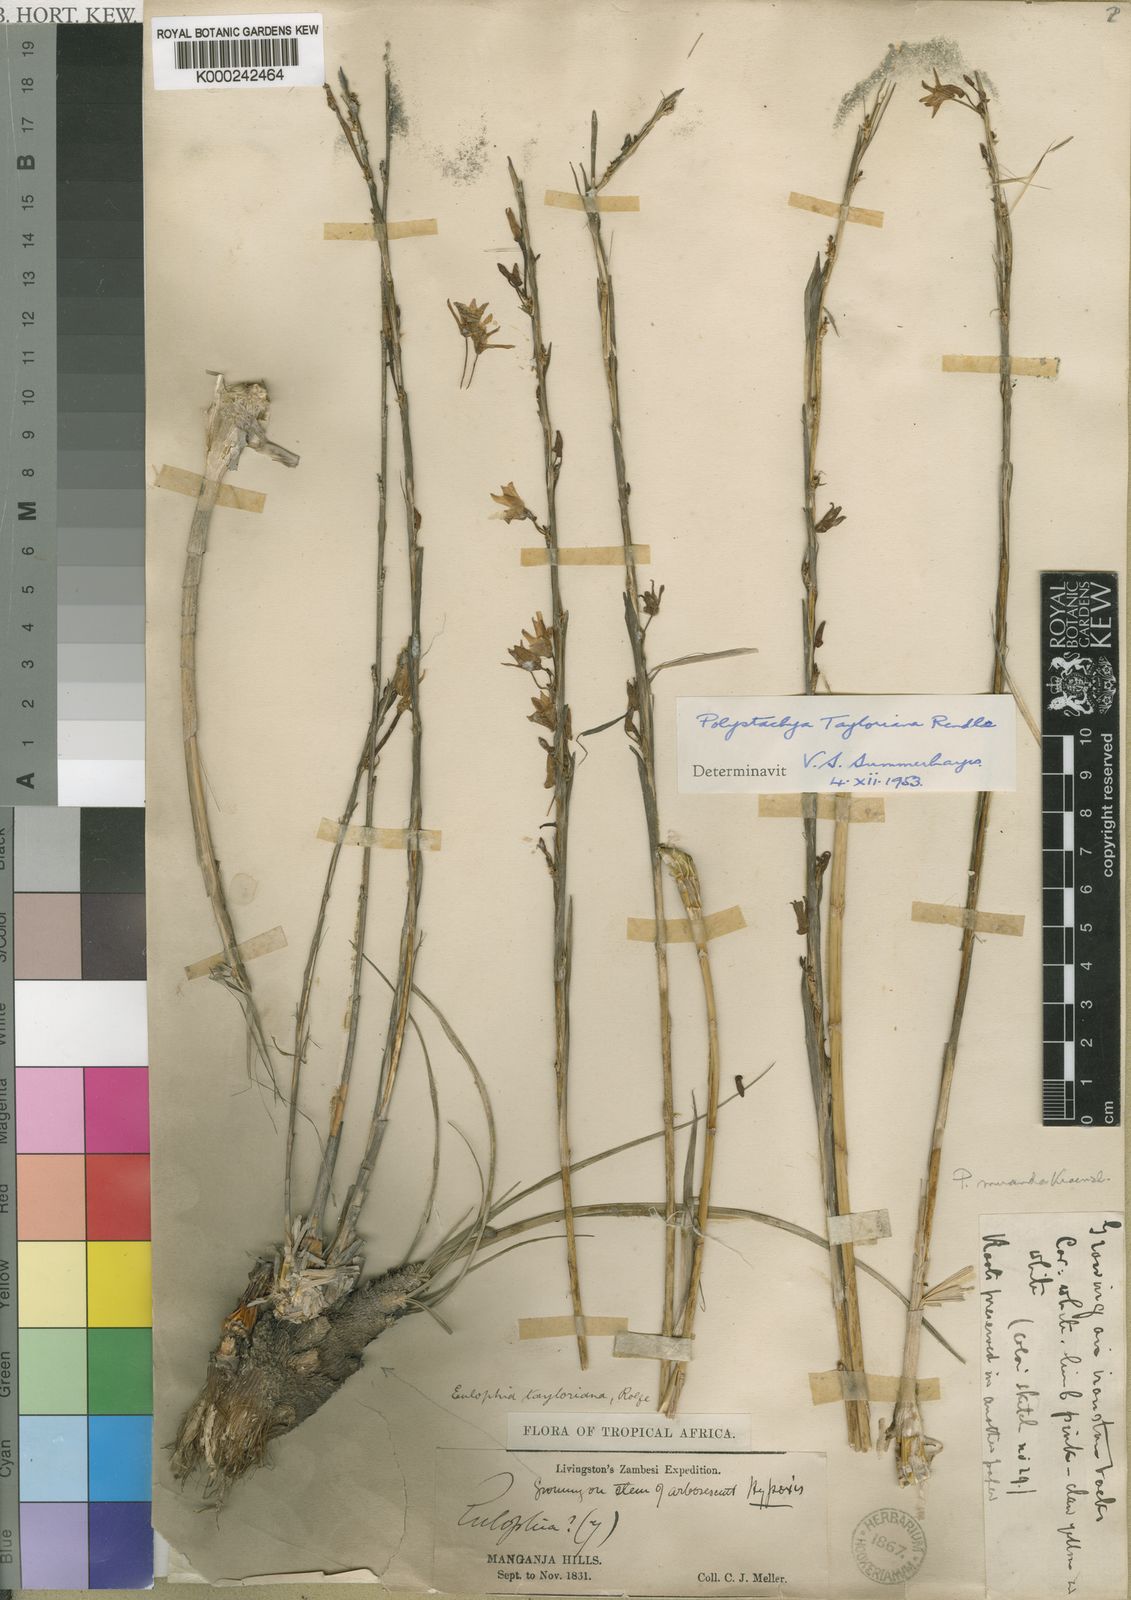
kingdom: Plantae
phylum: Tracheophyta
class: Liliopsida
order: Asparagales
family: Orchidaceae
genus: Polystachya
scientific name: Polystachya dendrobiiflora
